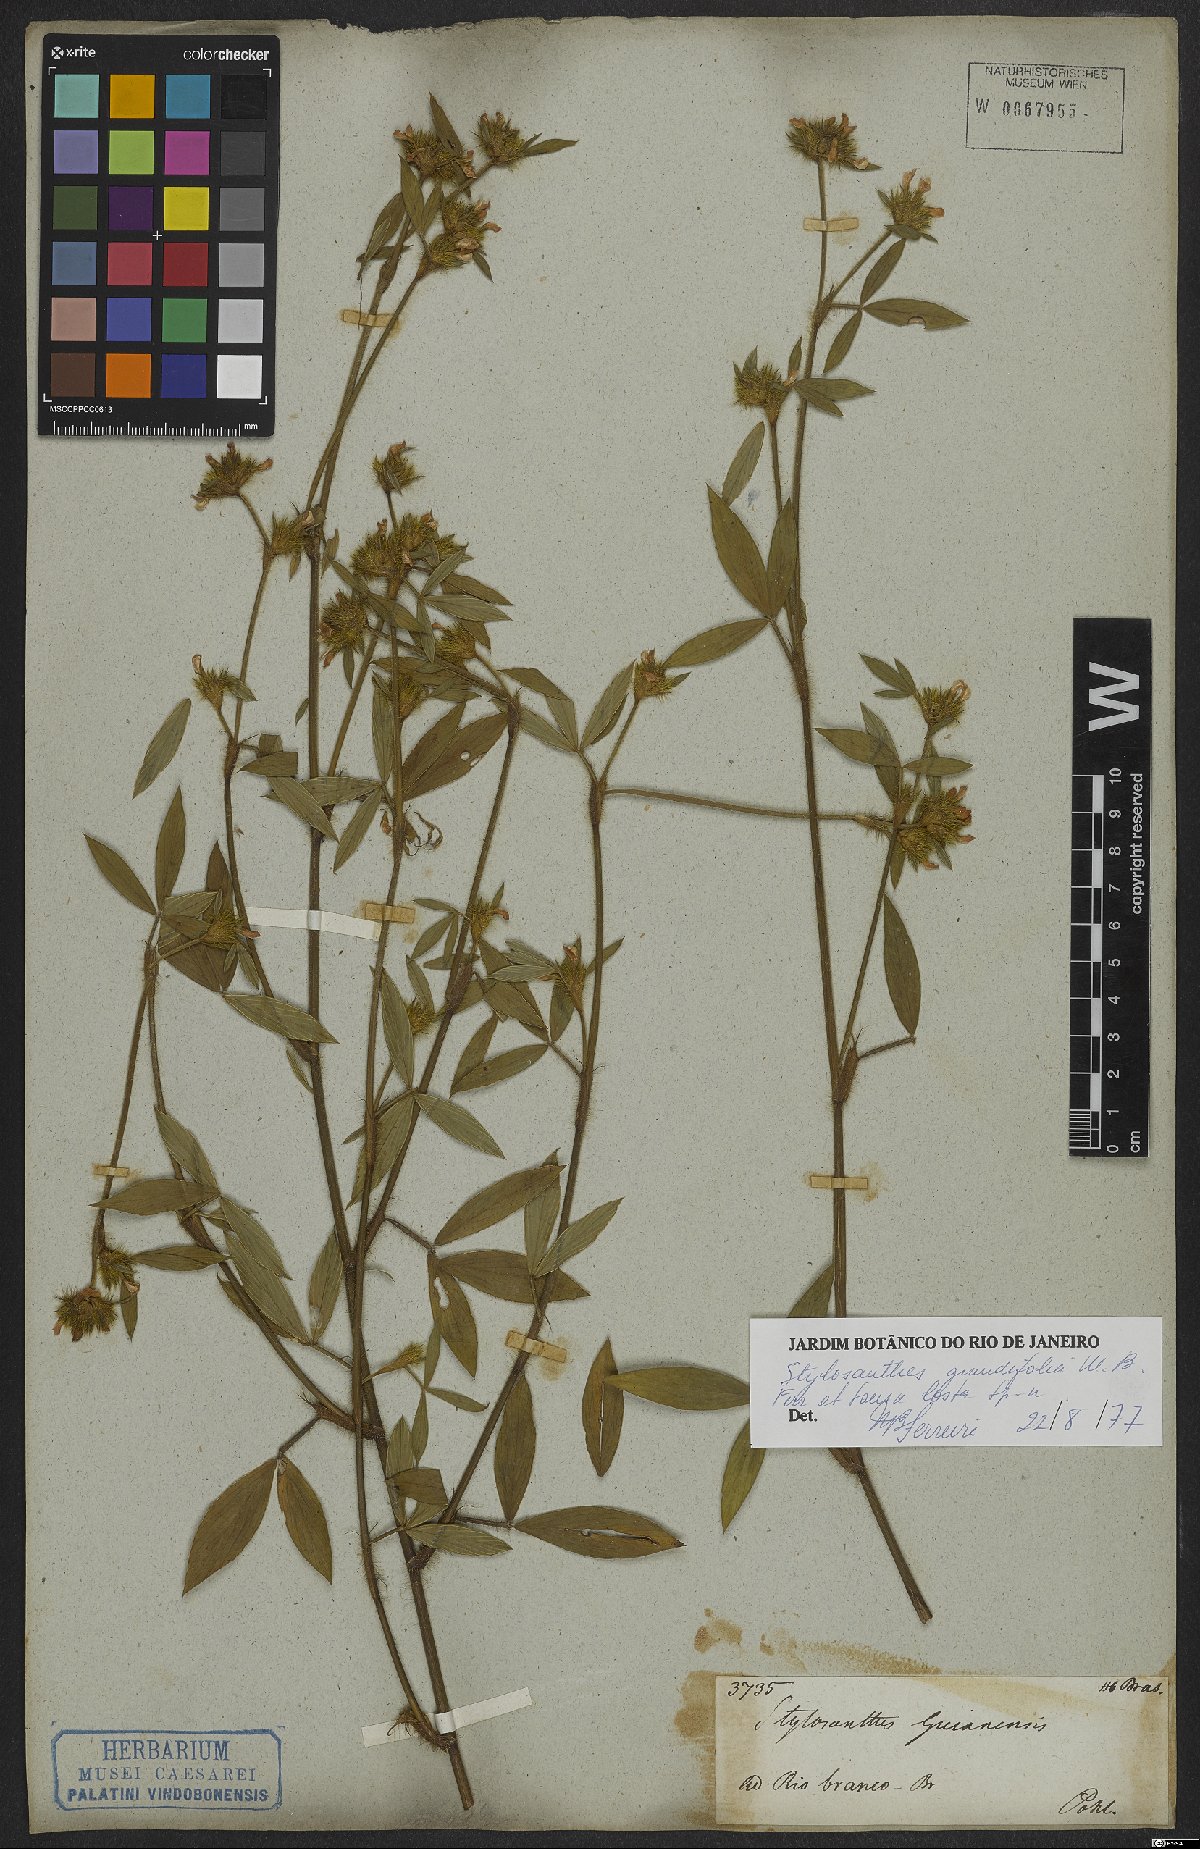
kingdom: Plantae
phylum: Tracheophyta
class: Magnoliopsida
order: Fabales
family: Fabaceae
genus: Stylosanthes
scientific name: Stylosanthes guianensis
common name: Pencil flower
